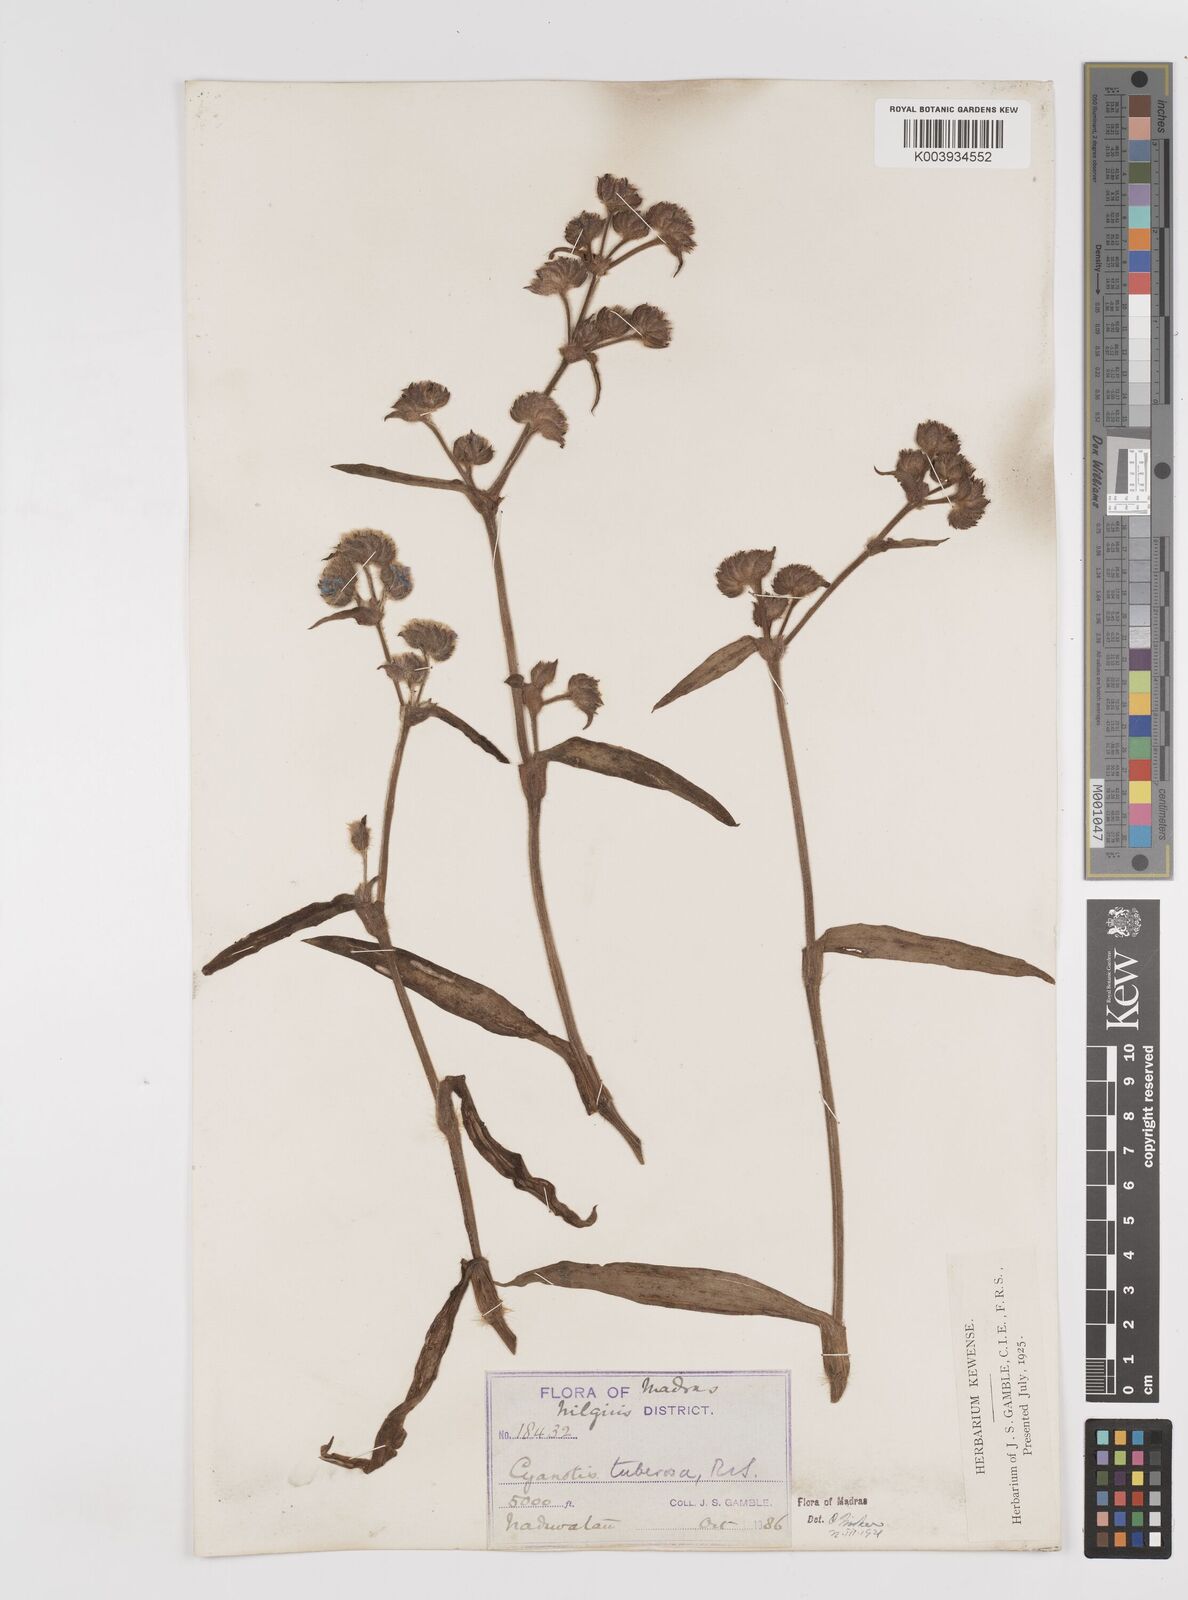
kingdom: Plantae
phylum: Tracheophyta
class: Liliopsida
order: Commelinales
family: Commelinaceae
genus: Cyanotis
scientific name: Cyanotis tuberosa
